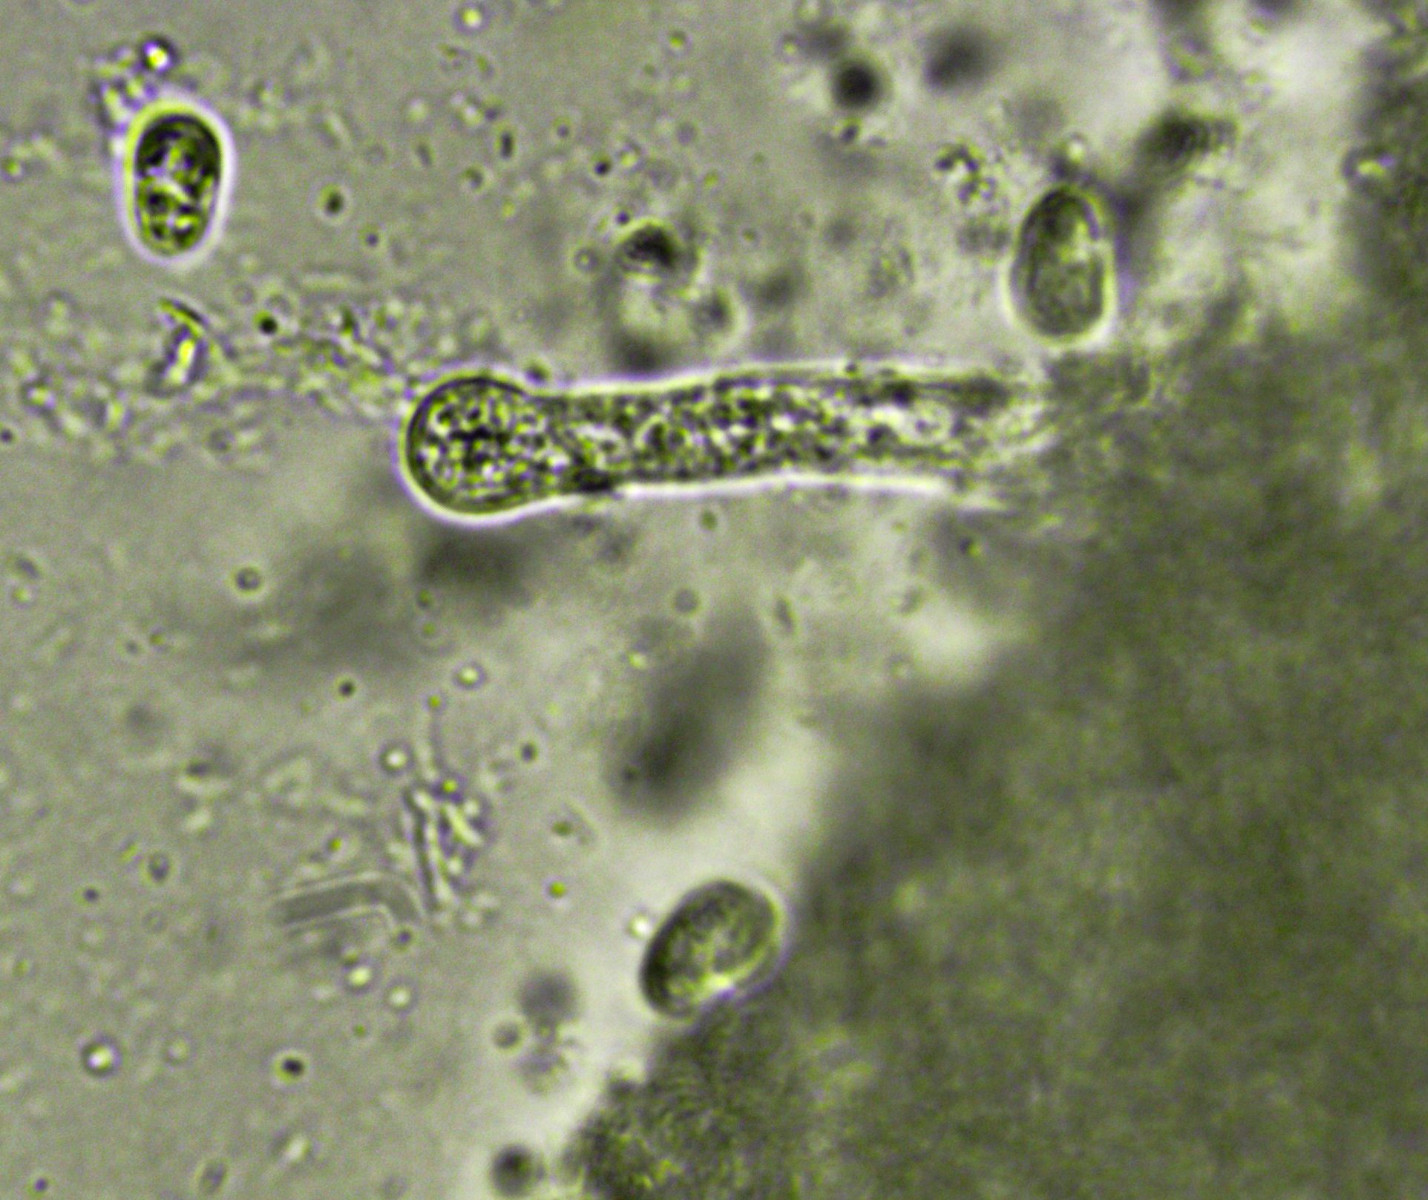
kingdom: Fungi
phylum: Basidiomycota
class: Agaricomycetes
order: Hymenochaetales
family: Rickenellaceae
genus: Peniophorella
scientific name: Peniophorella praetermissa
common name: almindelig kalkskind
